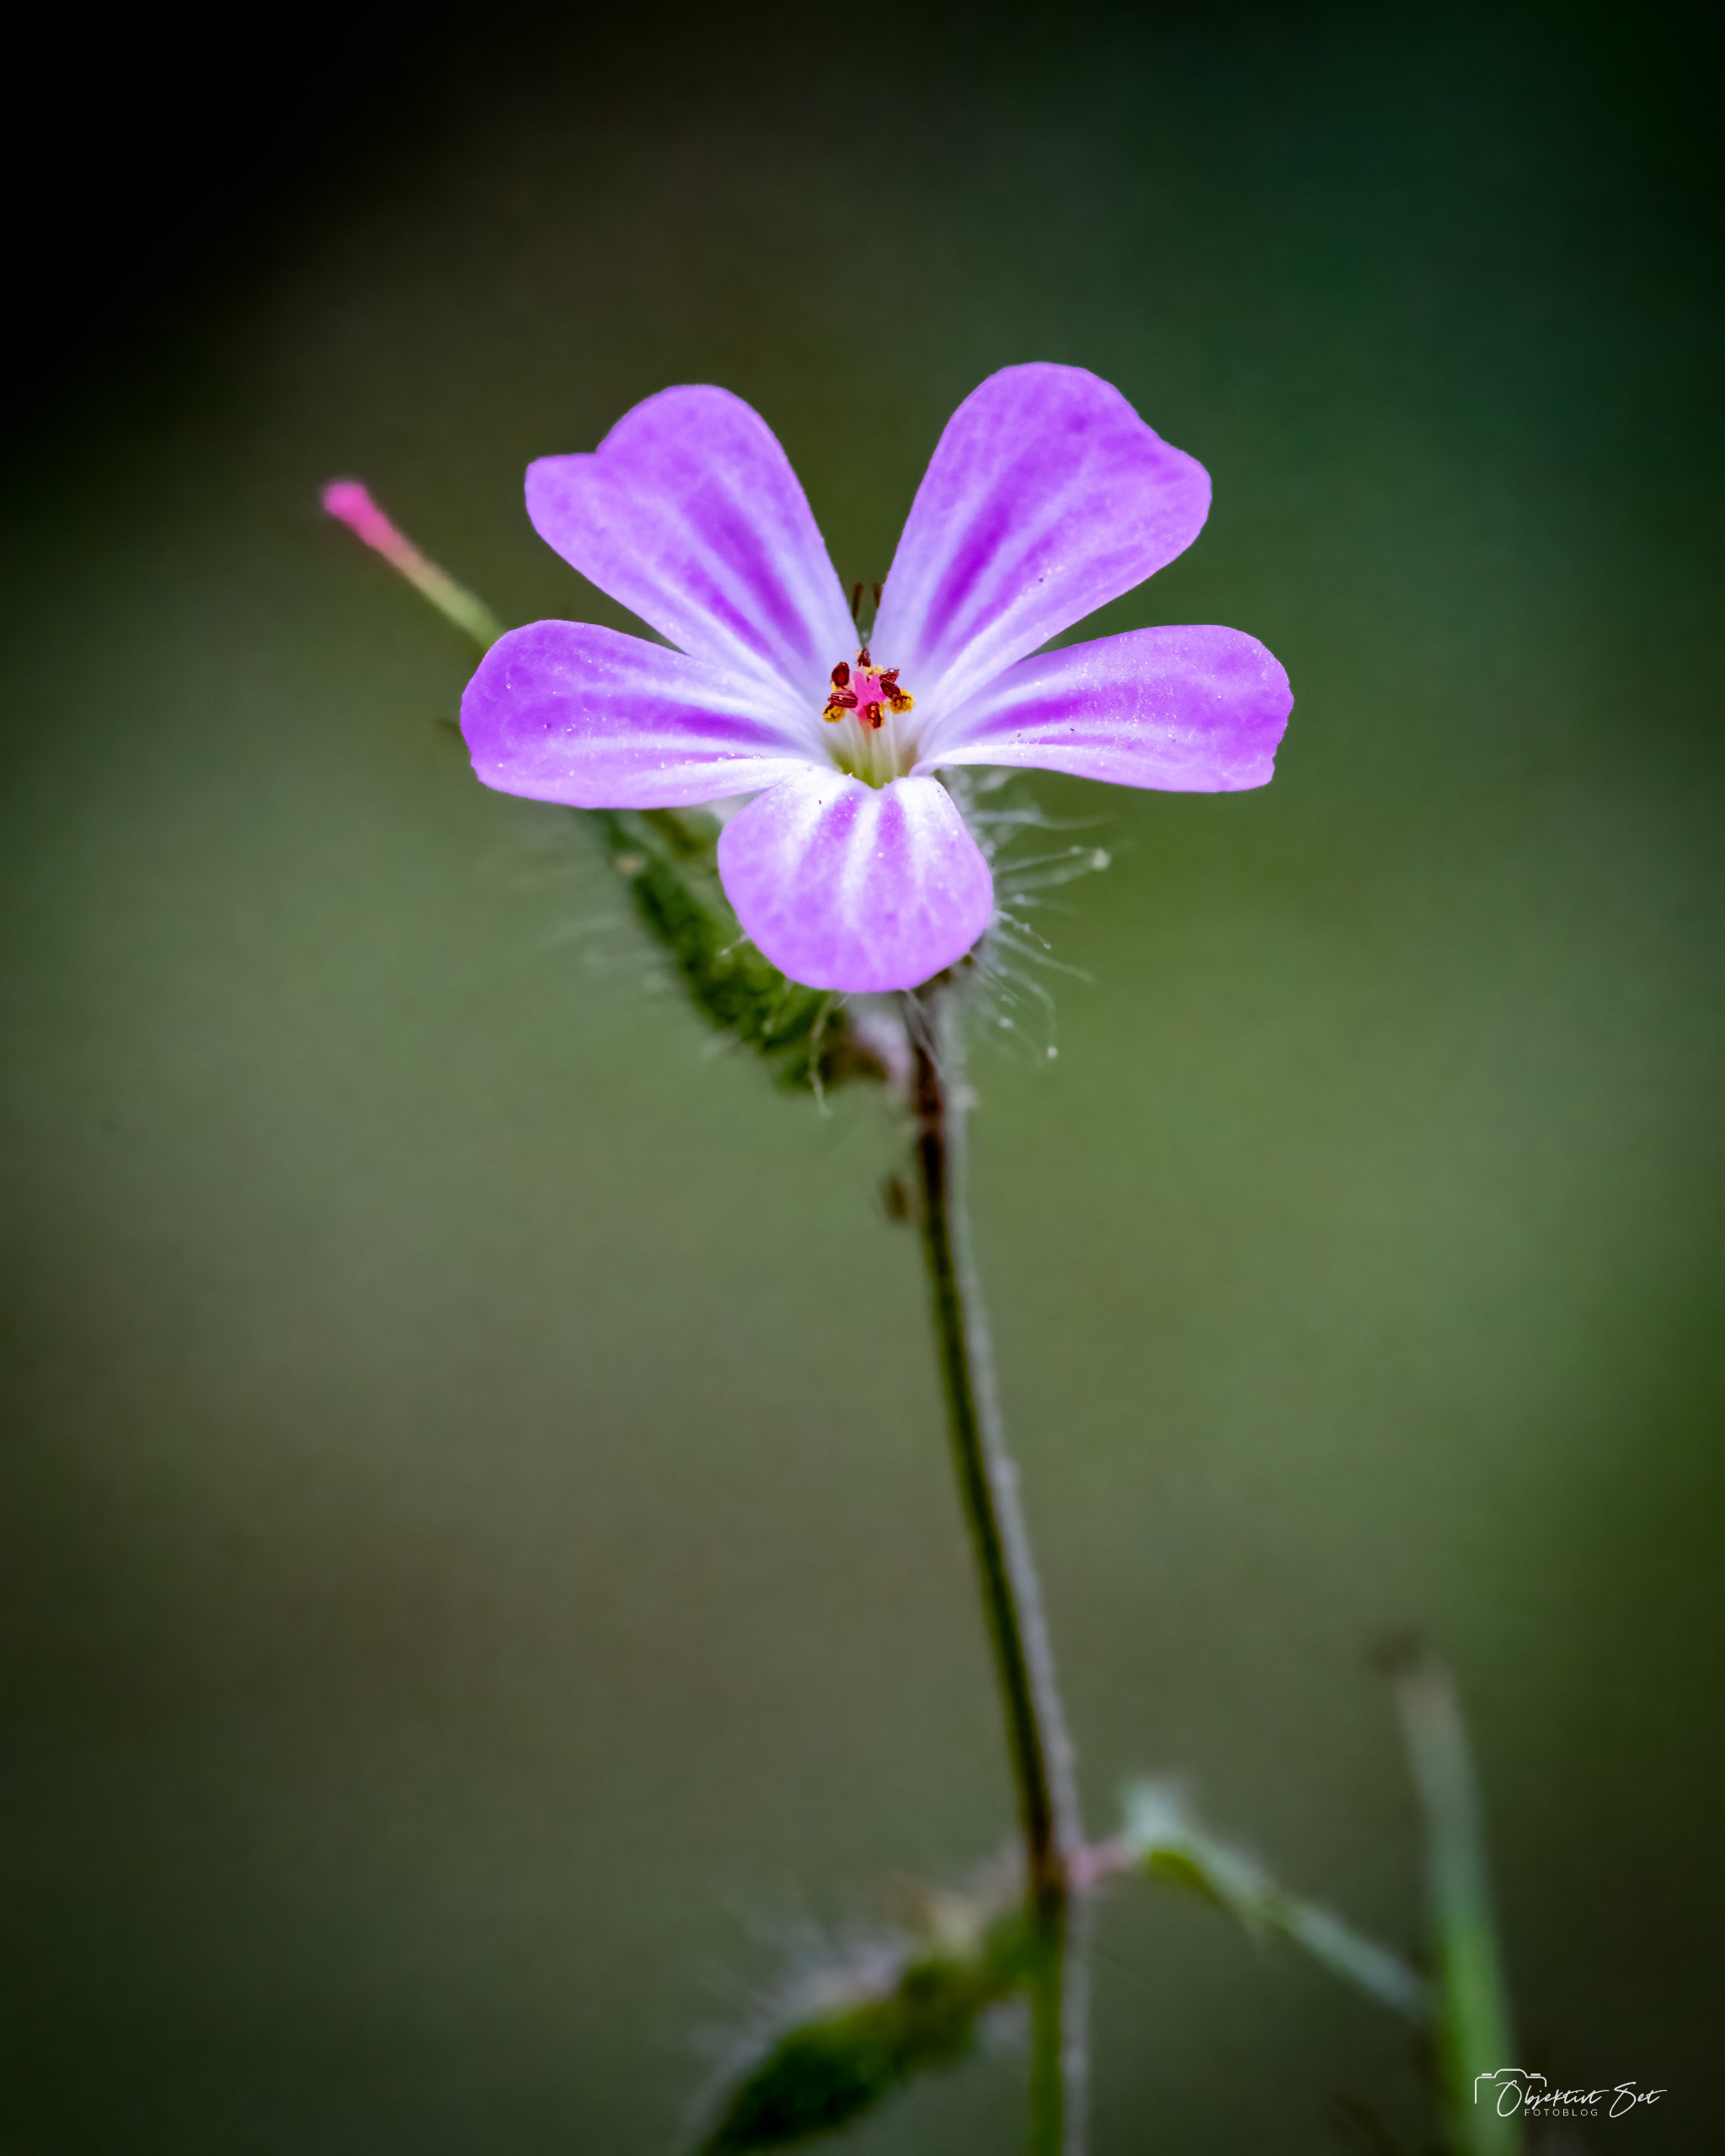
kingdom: Plantae
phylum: Tracheophyta
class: Magnoliopsida
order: Geraniales
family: Geraniaceae
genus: Geranium
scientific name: Geranium robertianum
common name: Stinkende storkenæb
